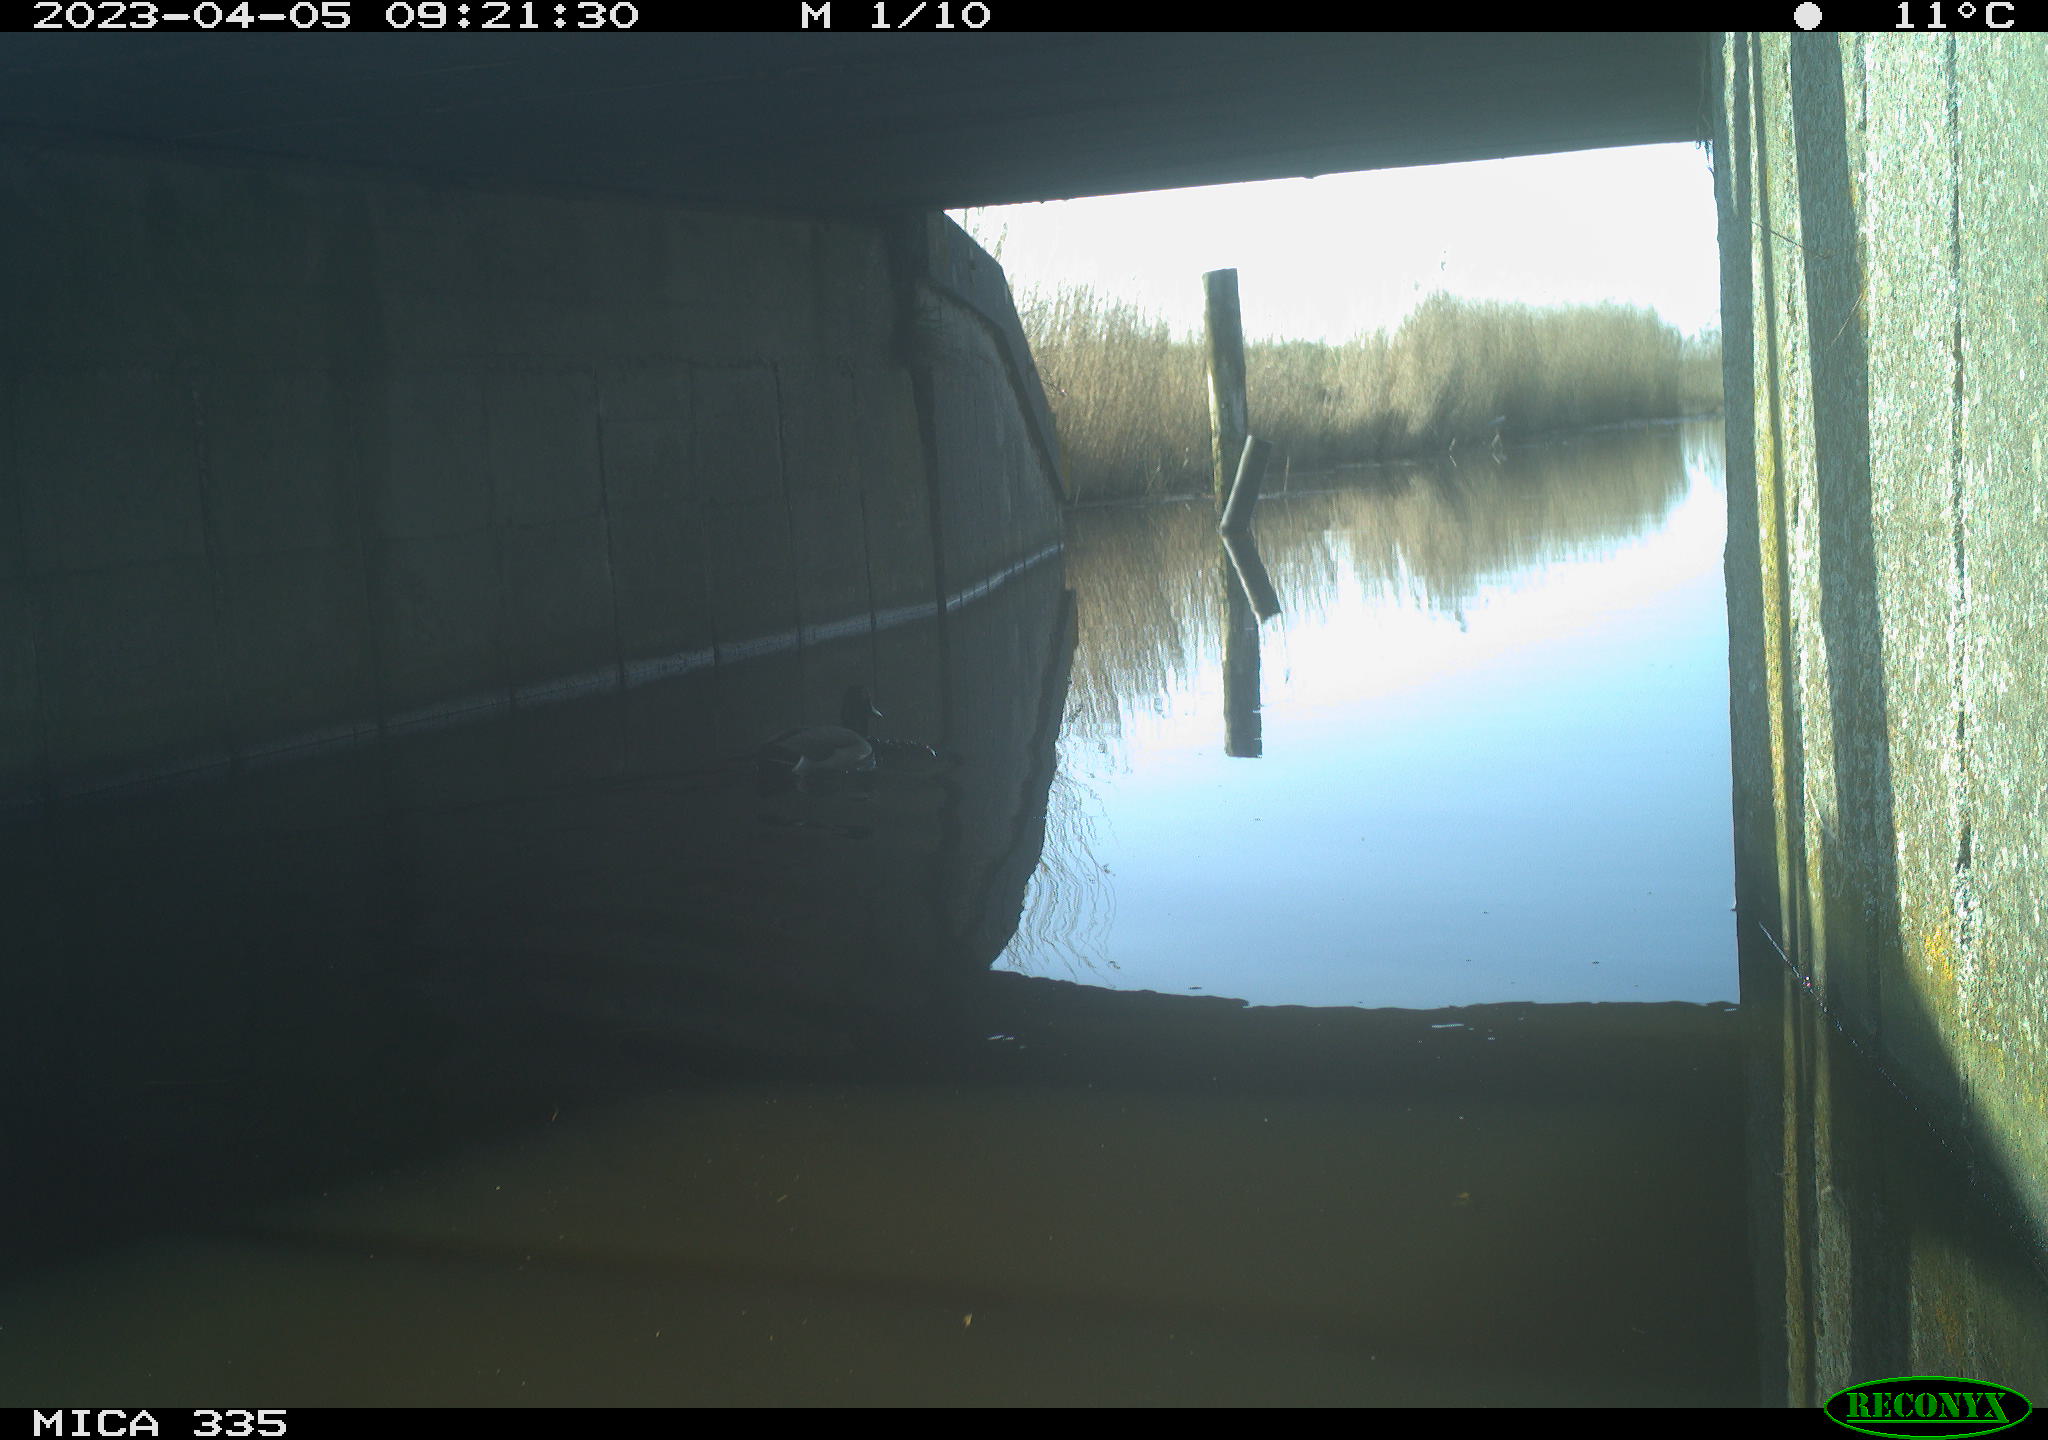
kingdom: Animalia
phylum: Chordata
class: Aves
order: Anseriformes
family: Anatidae
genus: Anas
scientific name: Anas
